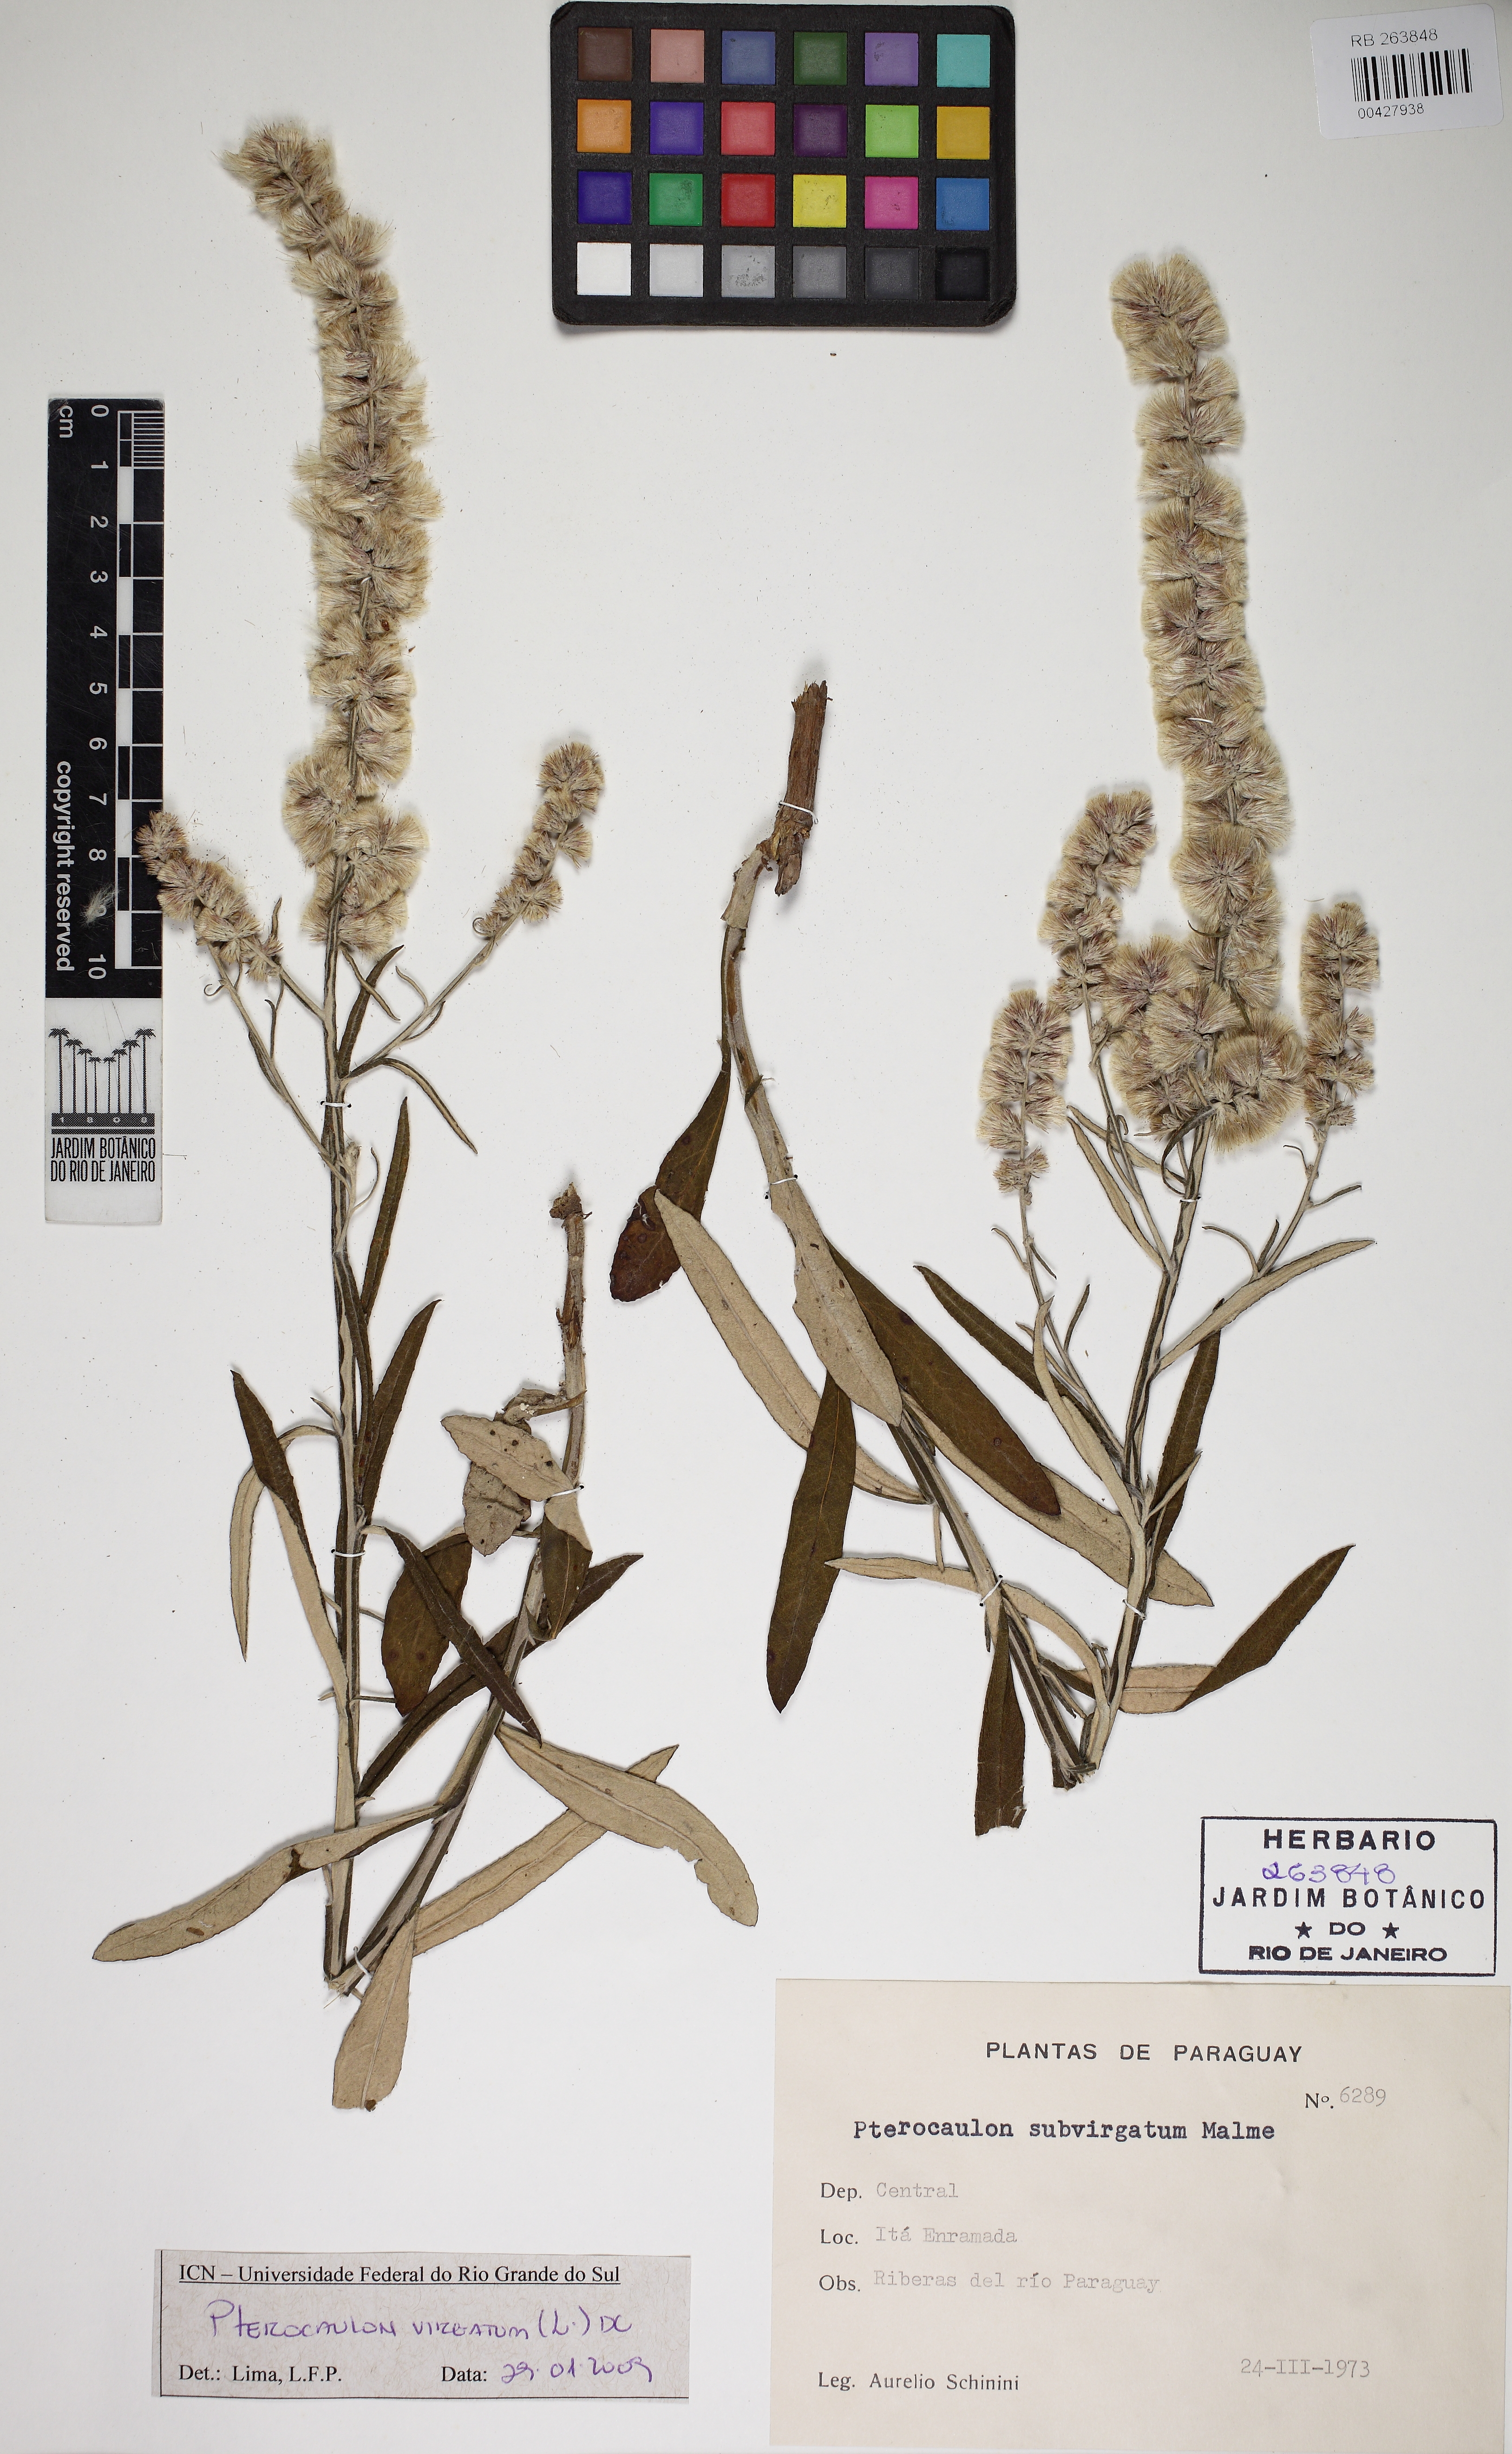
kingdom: Plantae
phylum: Tracheophyta
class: Magnoliopsida
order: Asterales
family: Asteraceae
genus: Pterocaulon
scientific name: Pterocaulon virgatum
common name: Wand blackroot
